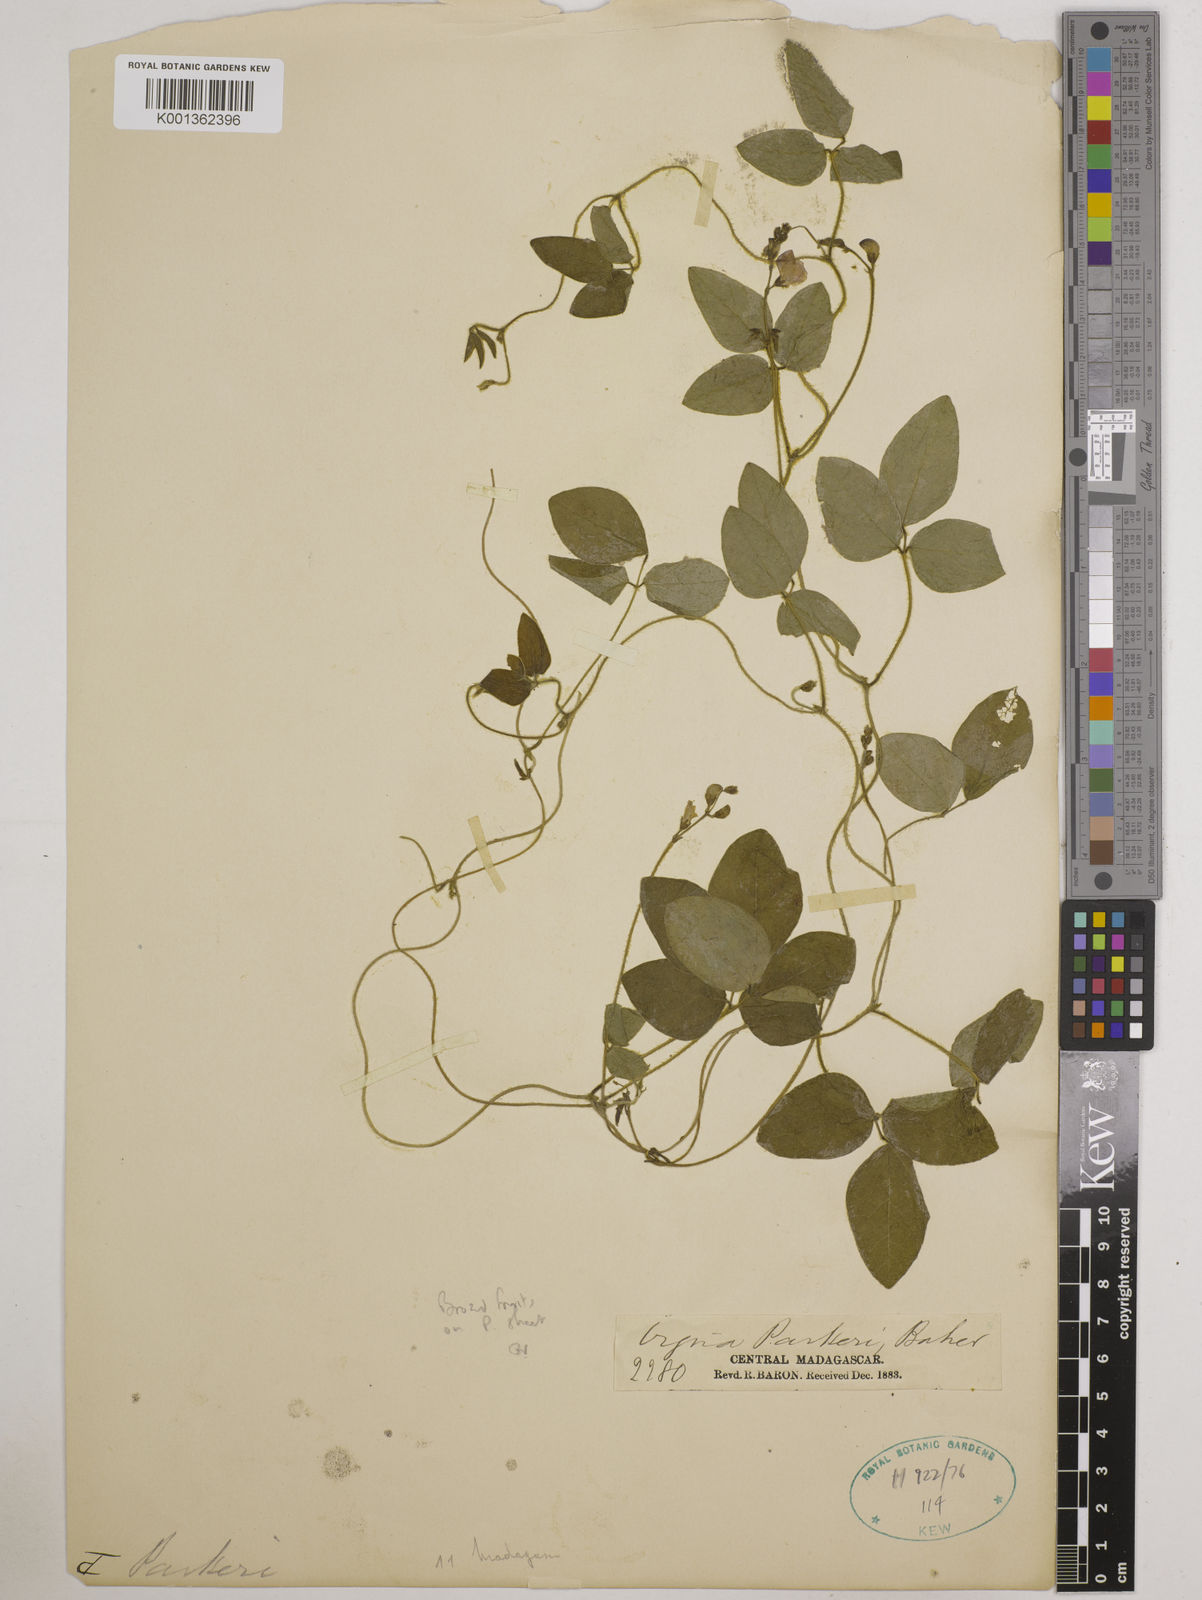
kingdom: Plantae
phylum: Tracheophyta
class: Magnoliopsida
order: Fabales
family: Fabaceae
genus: Vigna
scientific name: Vigna
